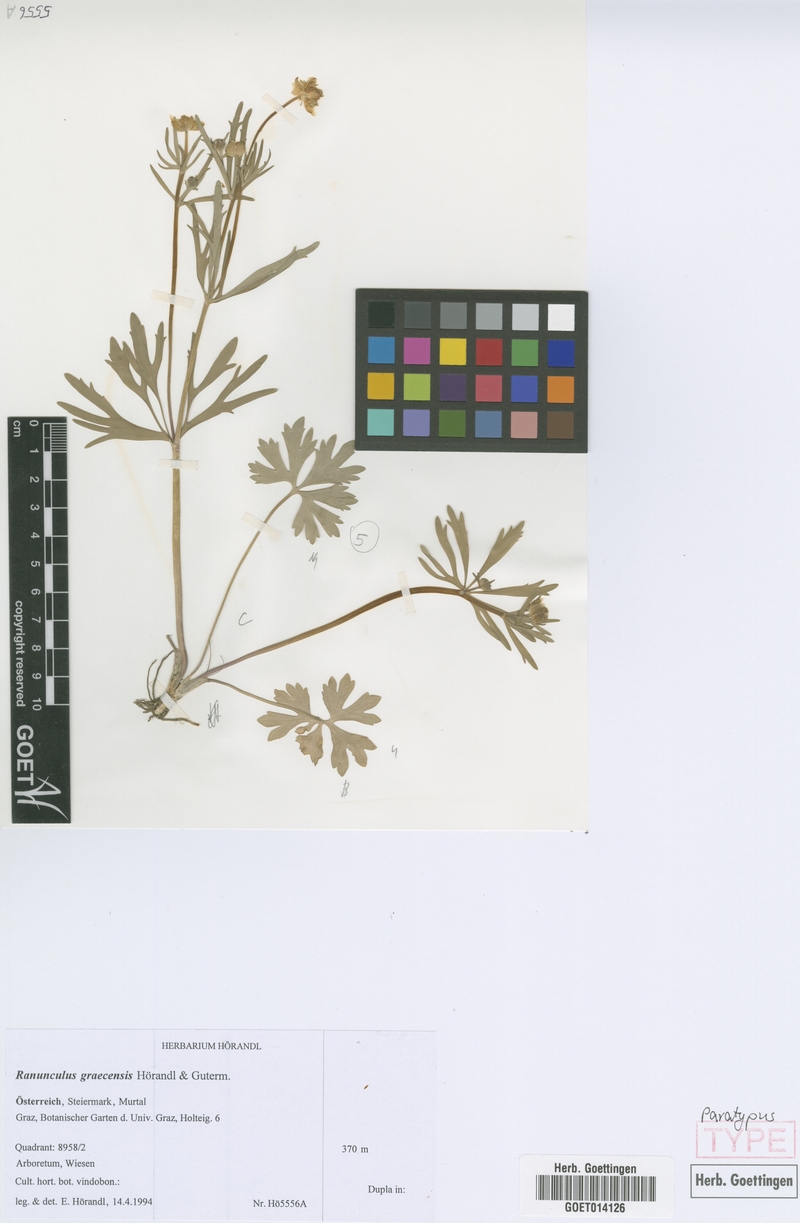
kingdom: Plantae
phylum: Tracheophyta
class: Magnoliopsida
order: Ranunculales
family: Ranunculaceae
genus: Ranunculus
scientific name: Ranunculus graecensis
